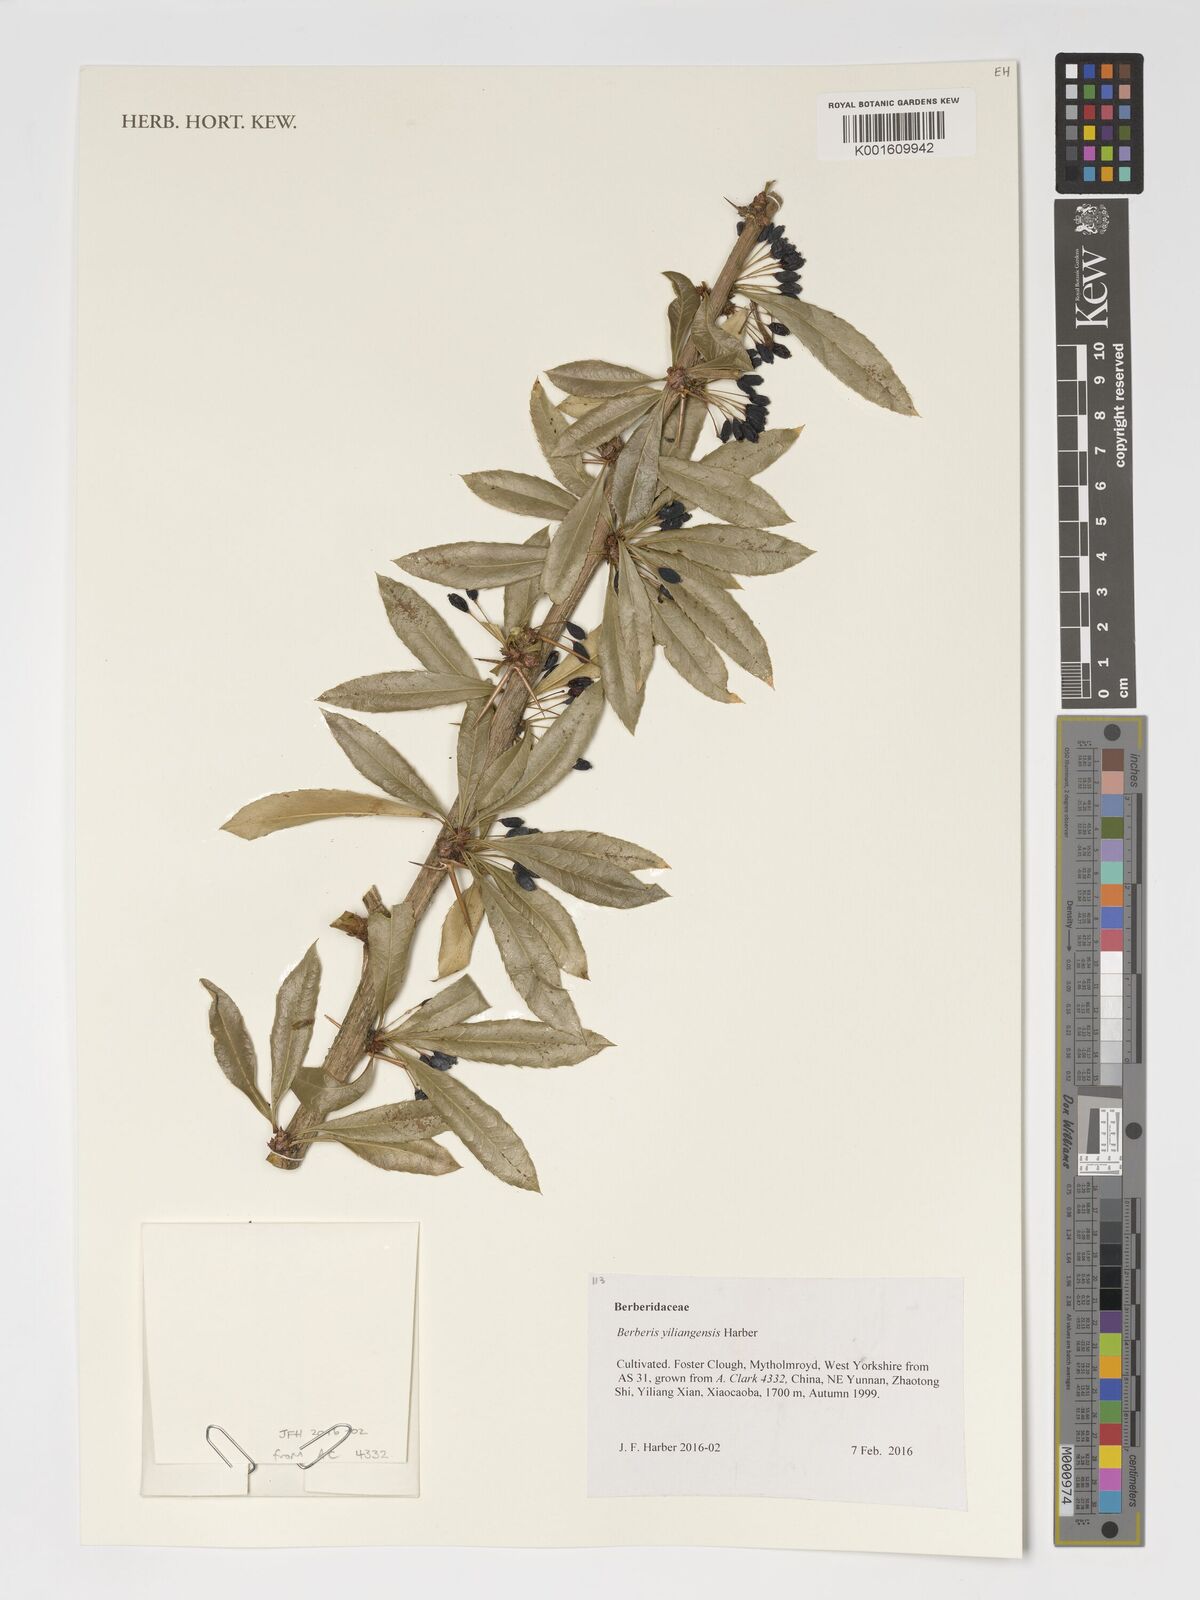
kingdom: Plantae
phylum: Tracheophyta
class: Magnoliopsida
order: Ranunculales
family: Berberidaceae
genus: Berberis
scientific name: Berberis yiliangensis
